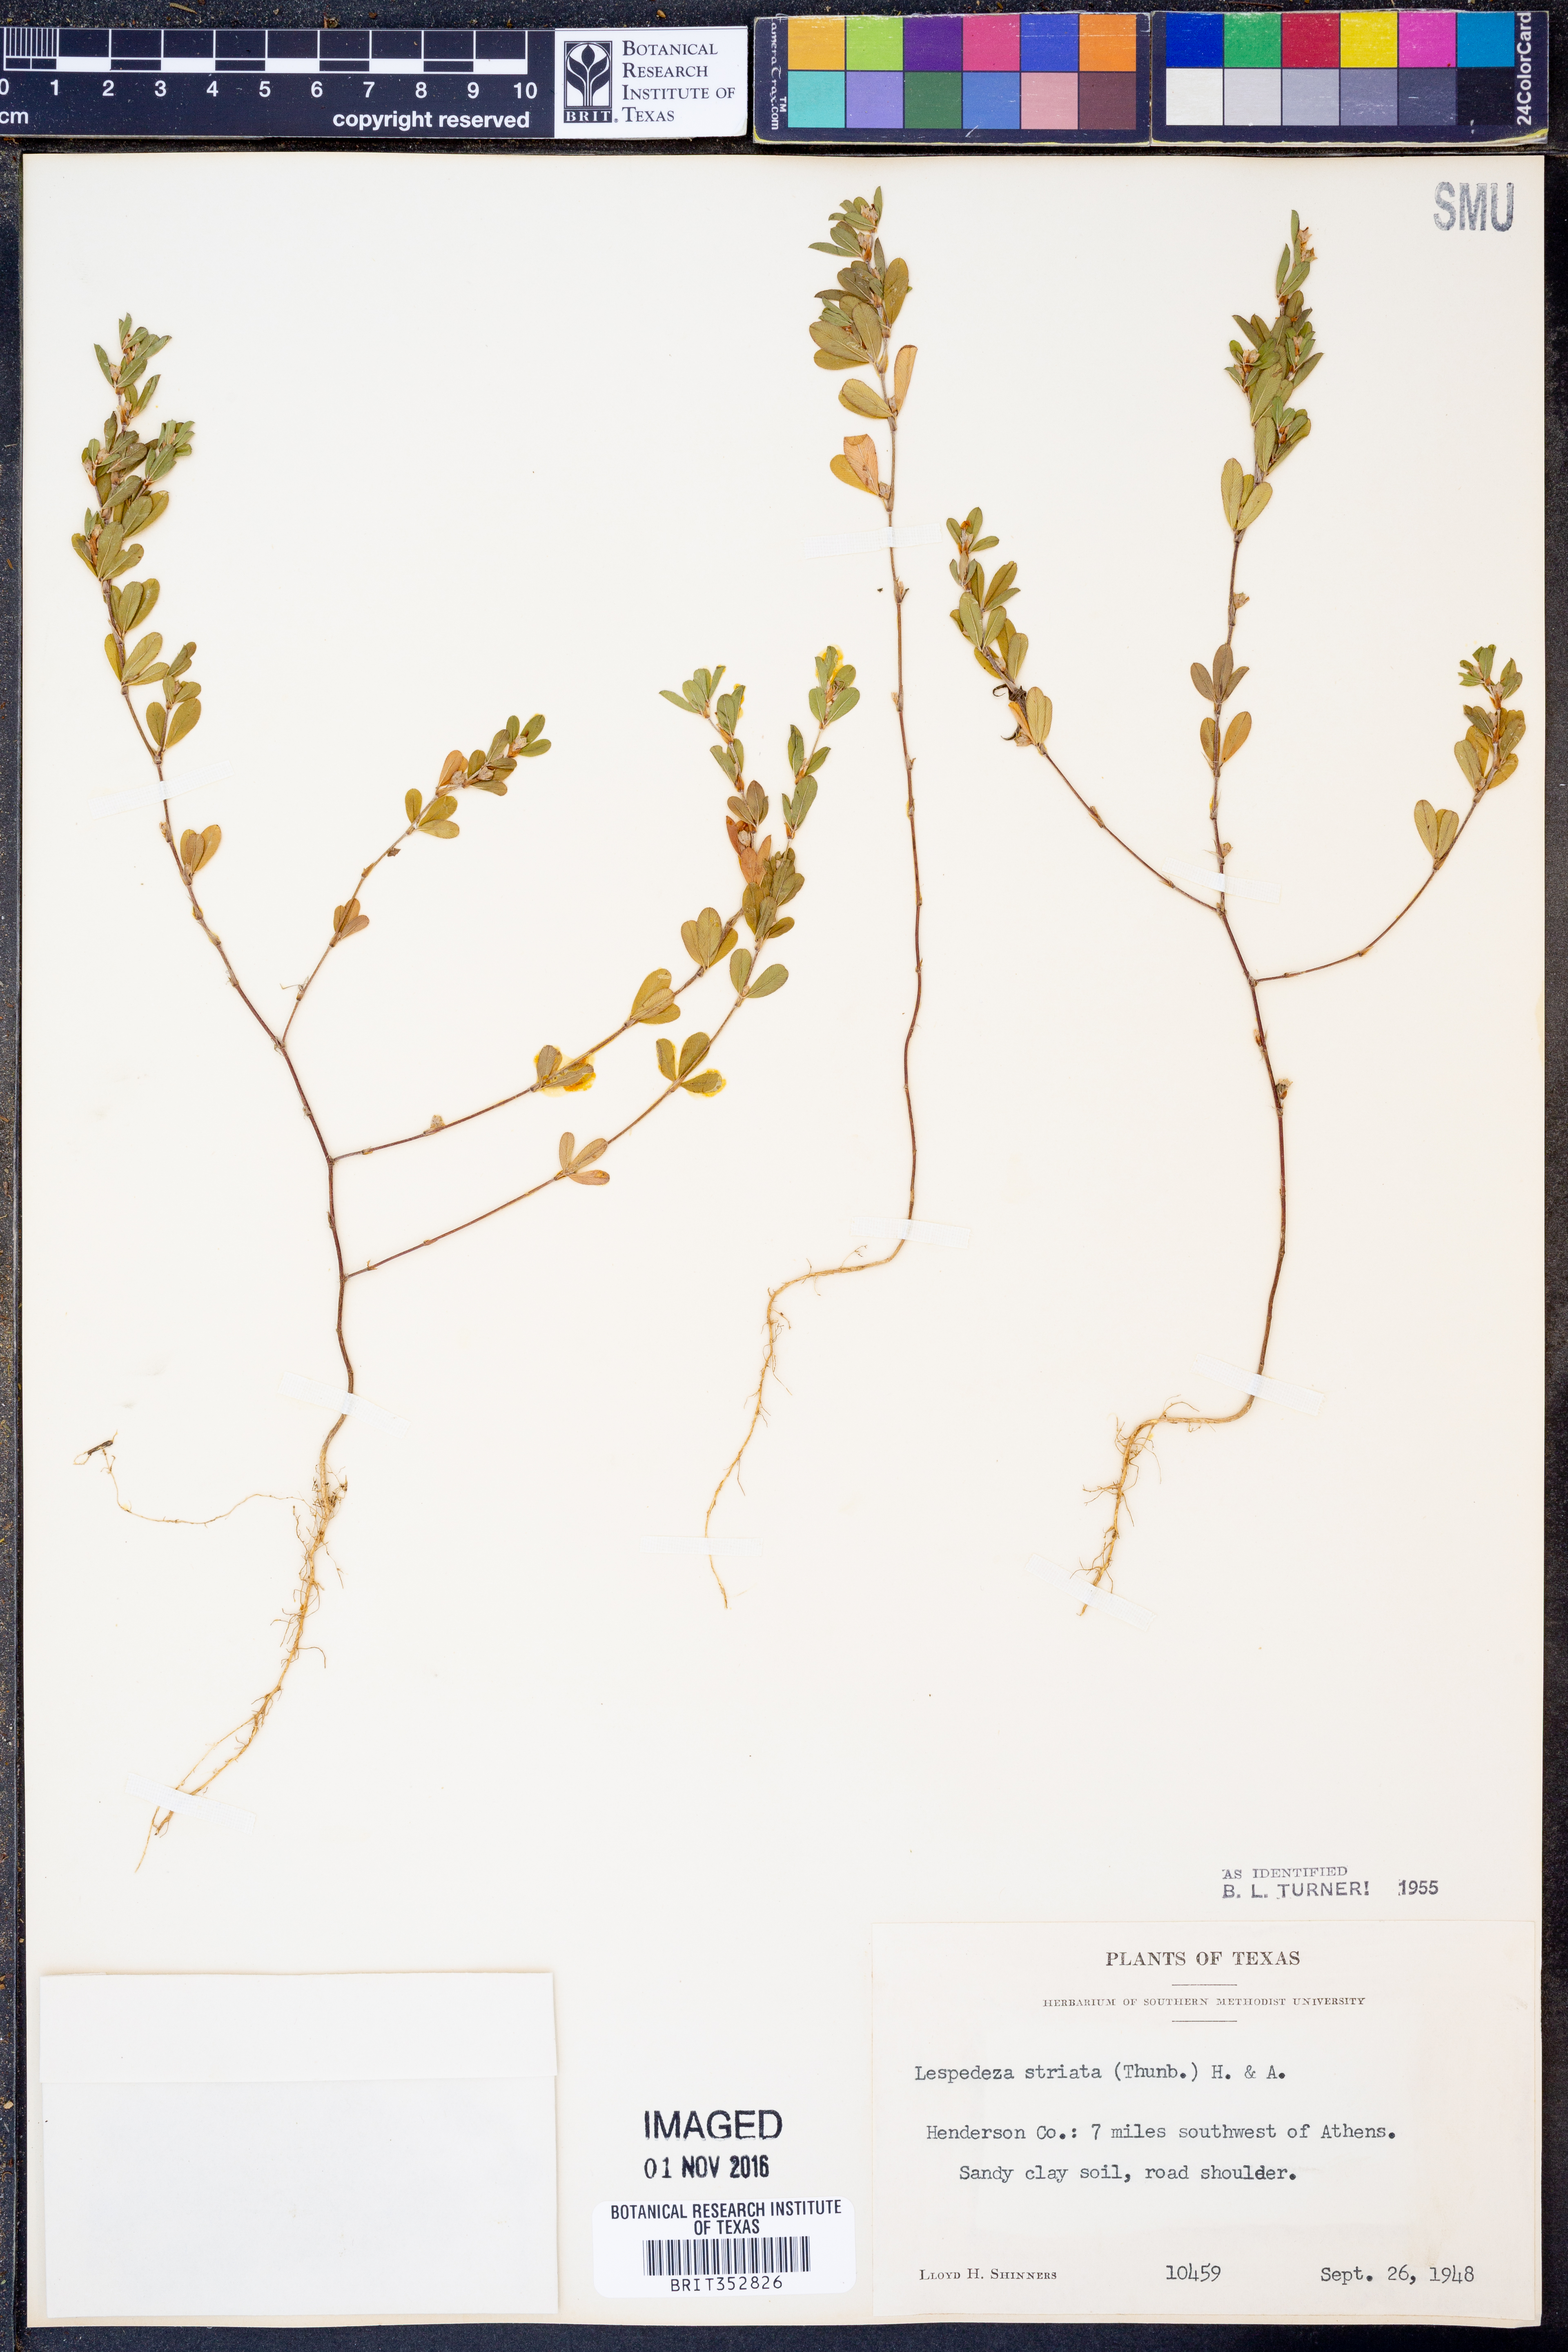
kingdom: Plantae
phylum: Tracheophyta
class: Magnoliopsida
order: Fabales
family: Fabaceae
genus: Kummerowia
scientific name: Kummerowia striata
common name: Japanese clover
